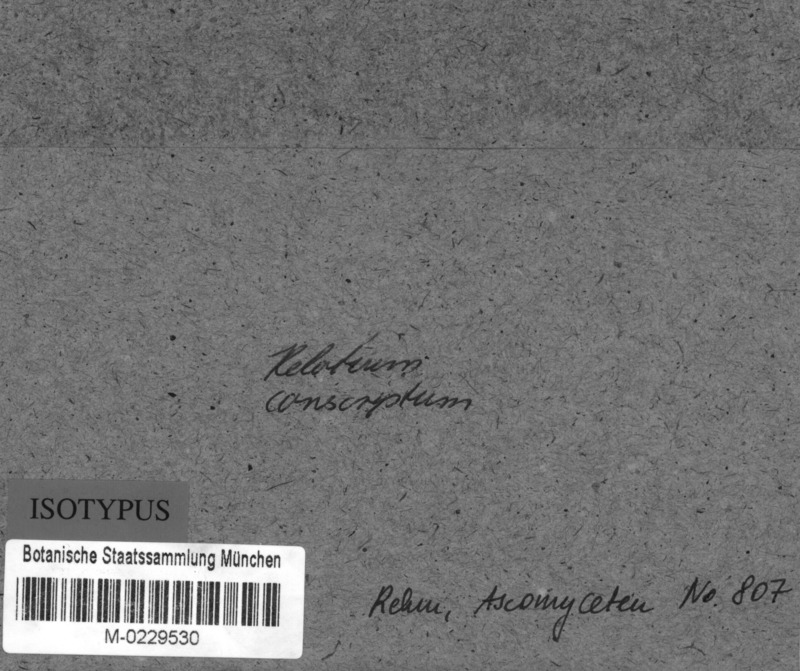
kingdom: Fungi
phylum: Ascomycota
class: Leotiomycetes
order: Helotiales
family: Helotiaceae
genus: Hymenoscyphus
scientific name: Hymenoscyphus calyculus
